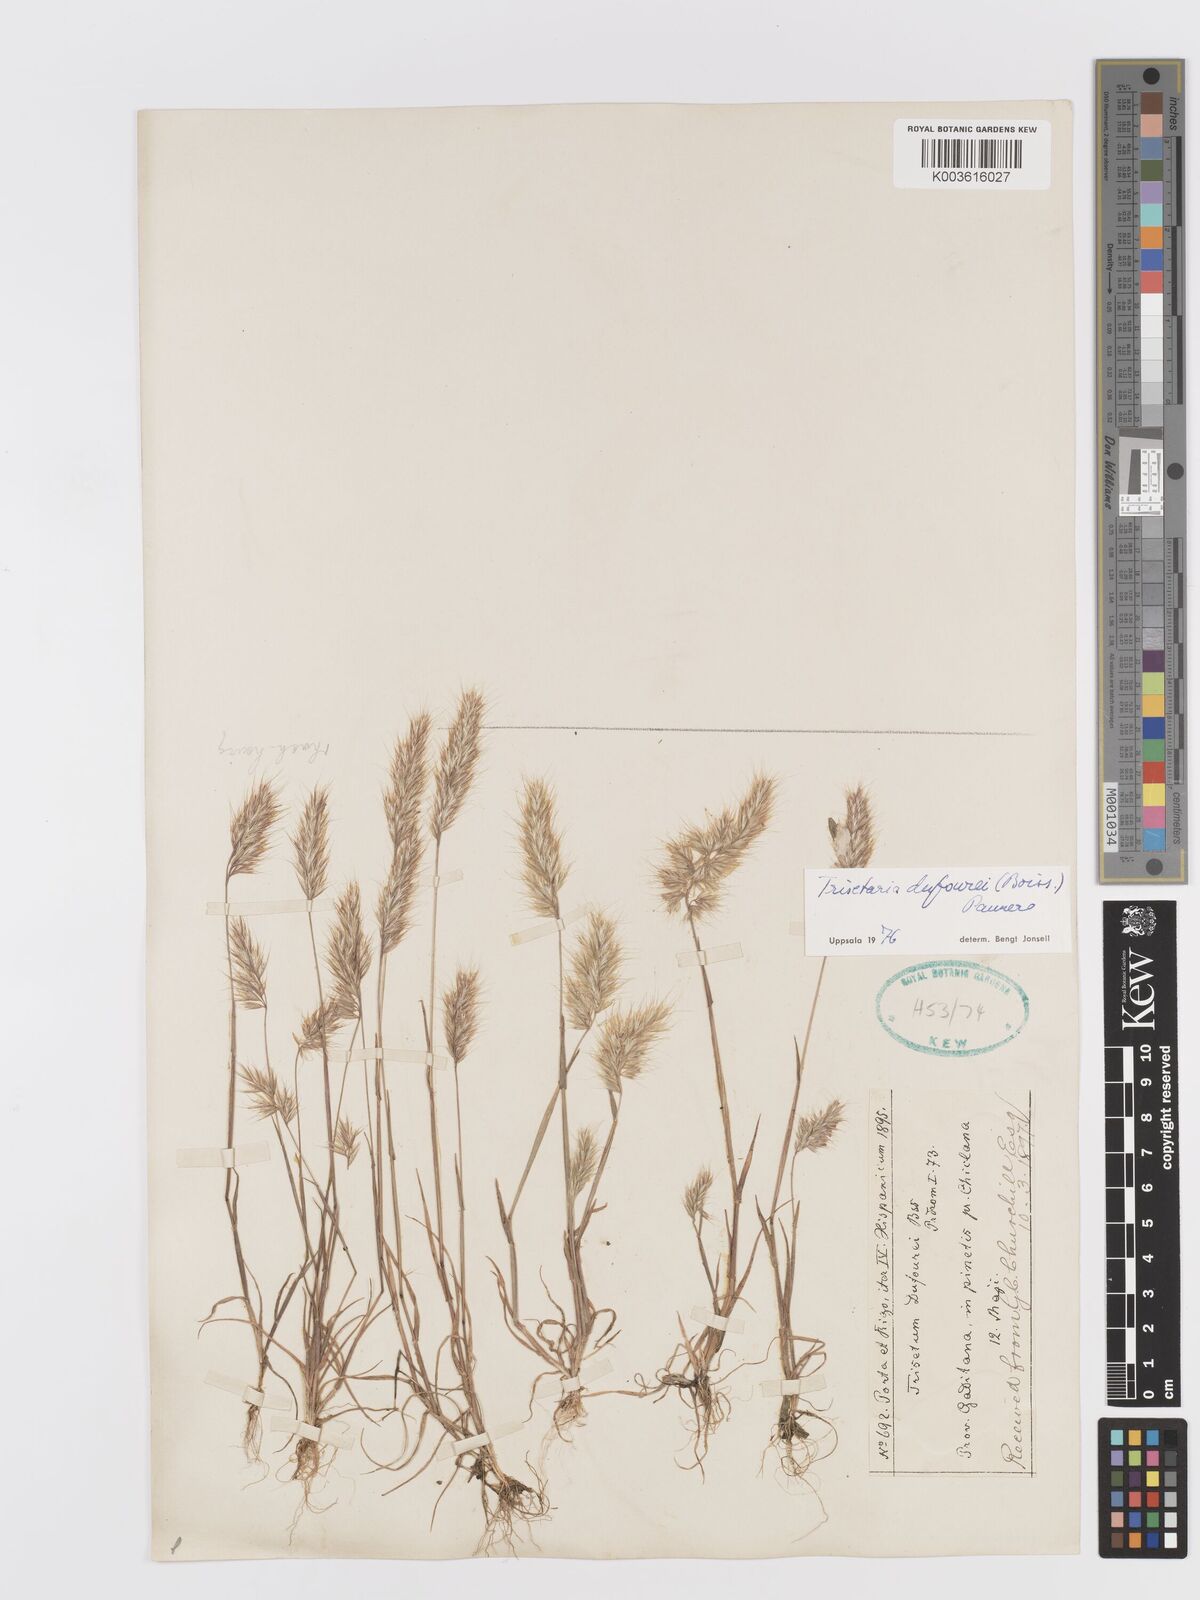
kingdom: Plantae
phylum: Tracheophyta
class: Liliopsida
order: Poales
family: Poaceae
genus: Trisetaria
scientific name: Trisetaria dufourei
